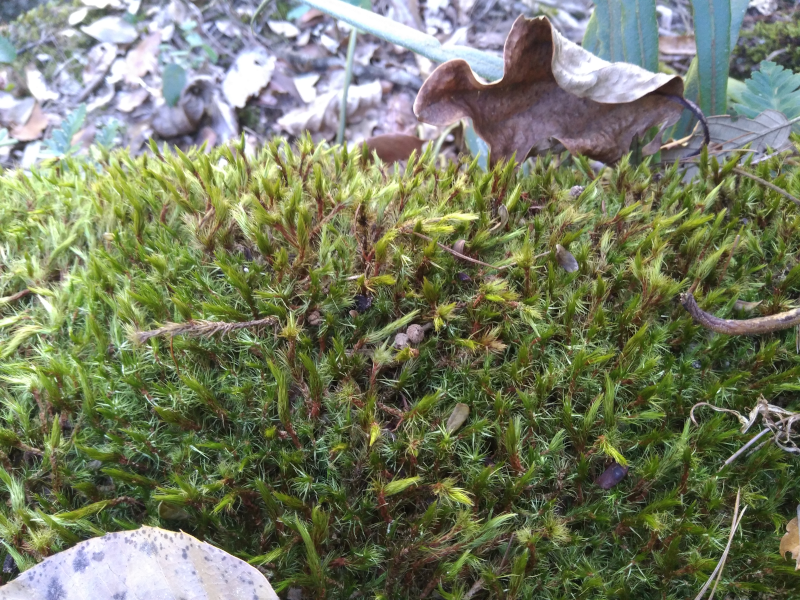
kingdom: Plantae
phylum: Bryophyta
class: Bryopsida
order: Dicranales
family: Leucobryaceae
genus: Campylopus
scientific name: Campylopus
